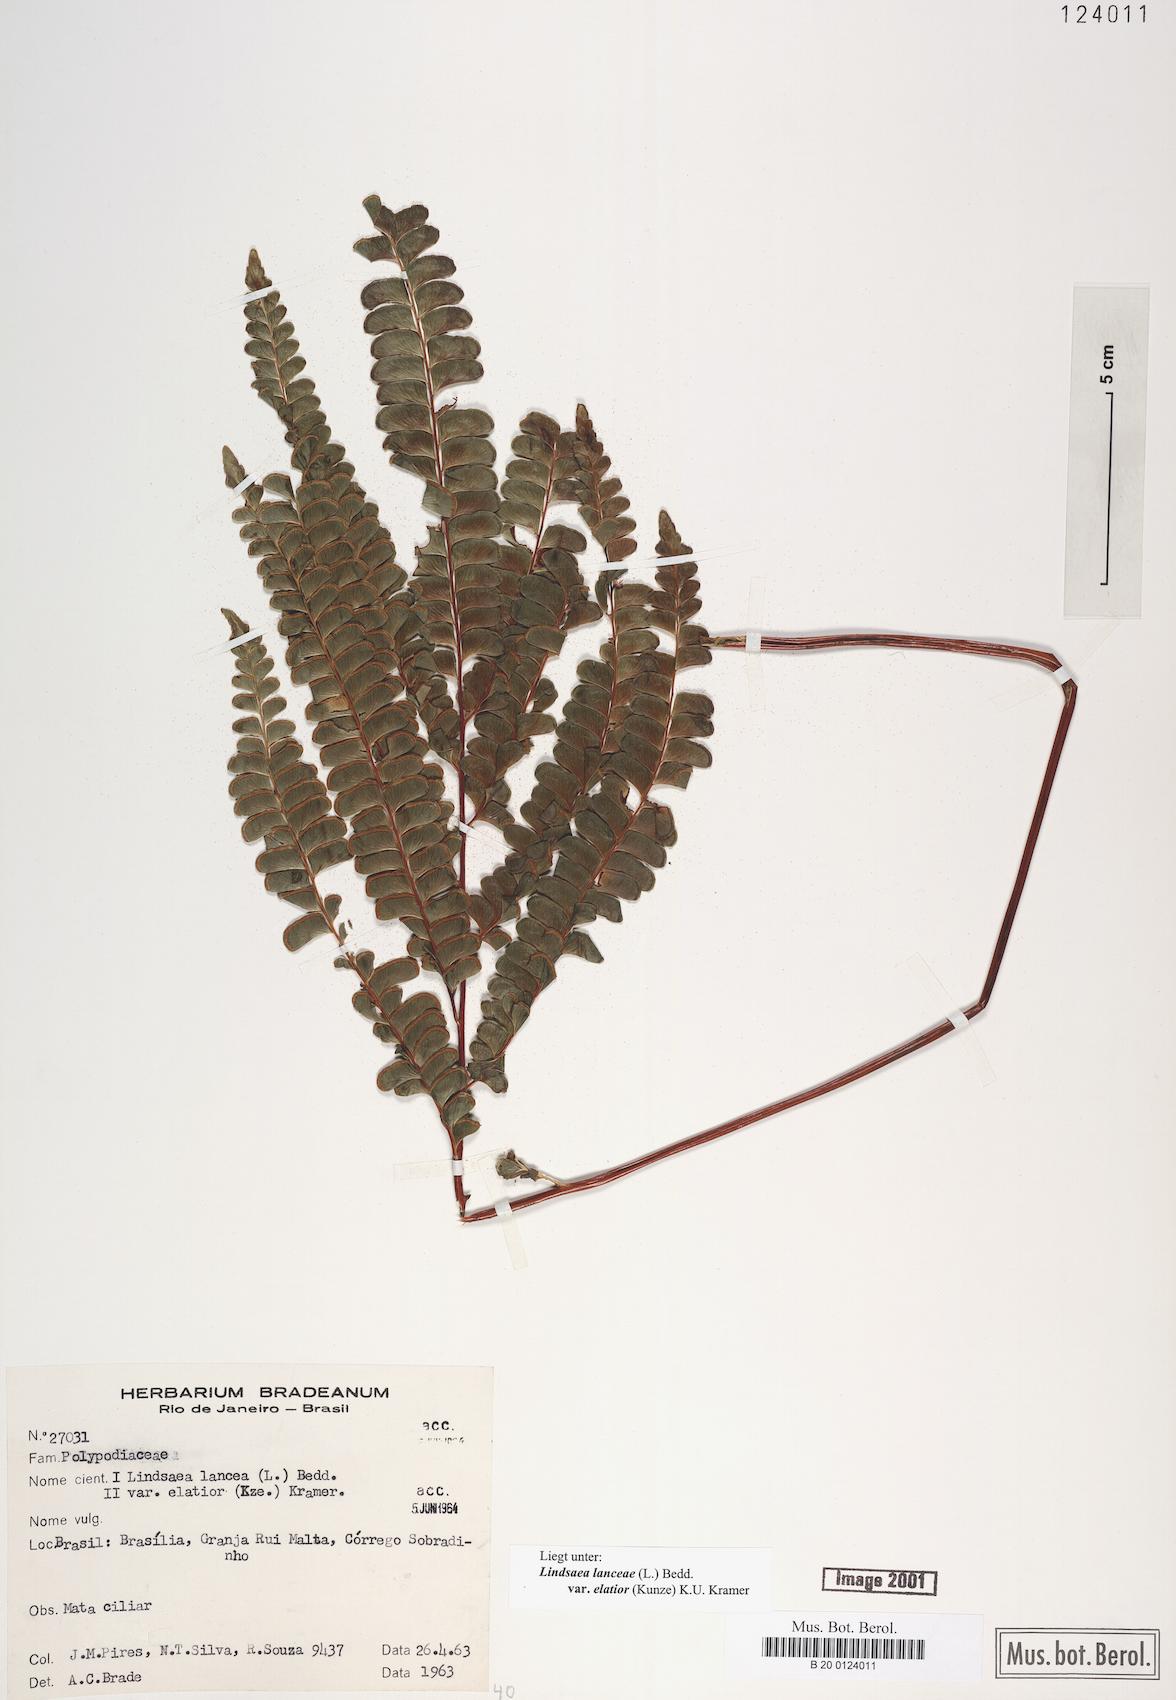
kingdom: Plantae
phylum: Tracheophyta
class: Polypodiopsida
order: Polypodiales
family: Lindsaeaceae
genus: Lindsaea
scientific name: Lindsaea elatior
